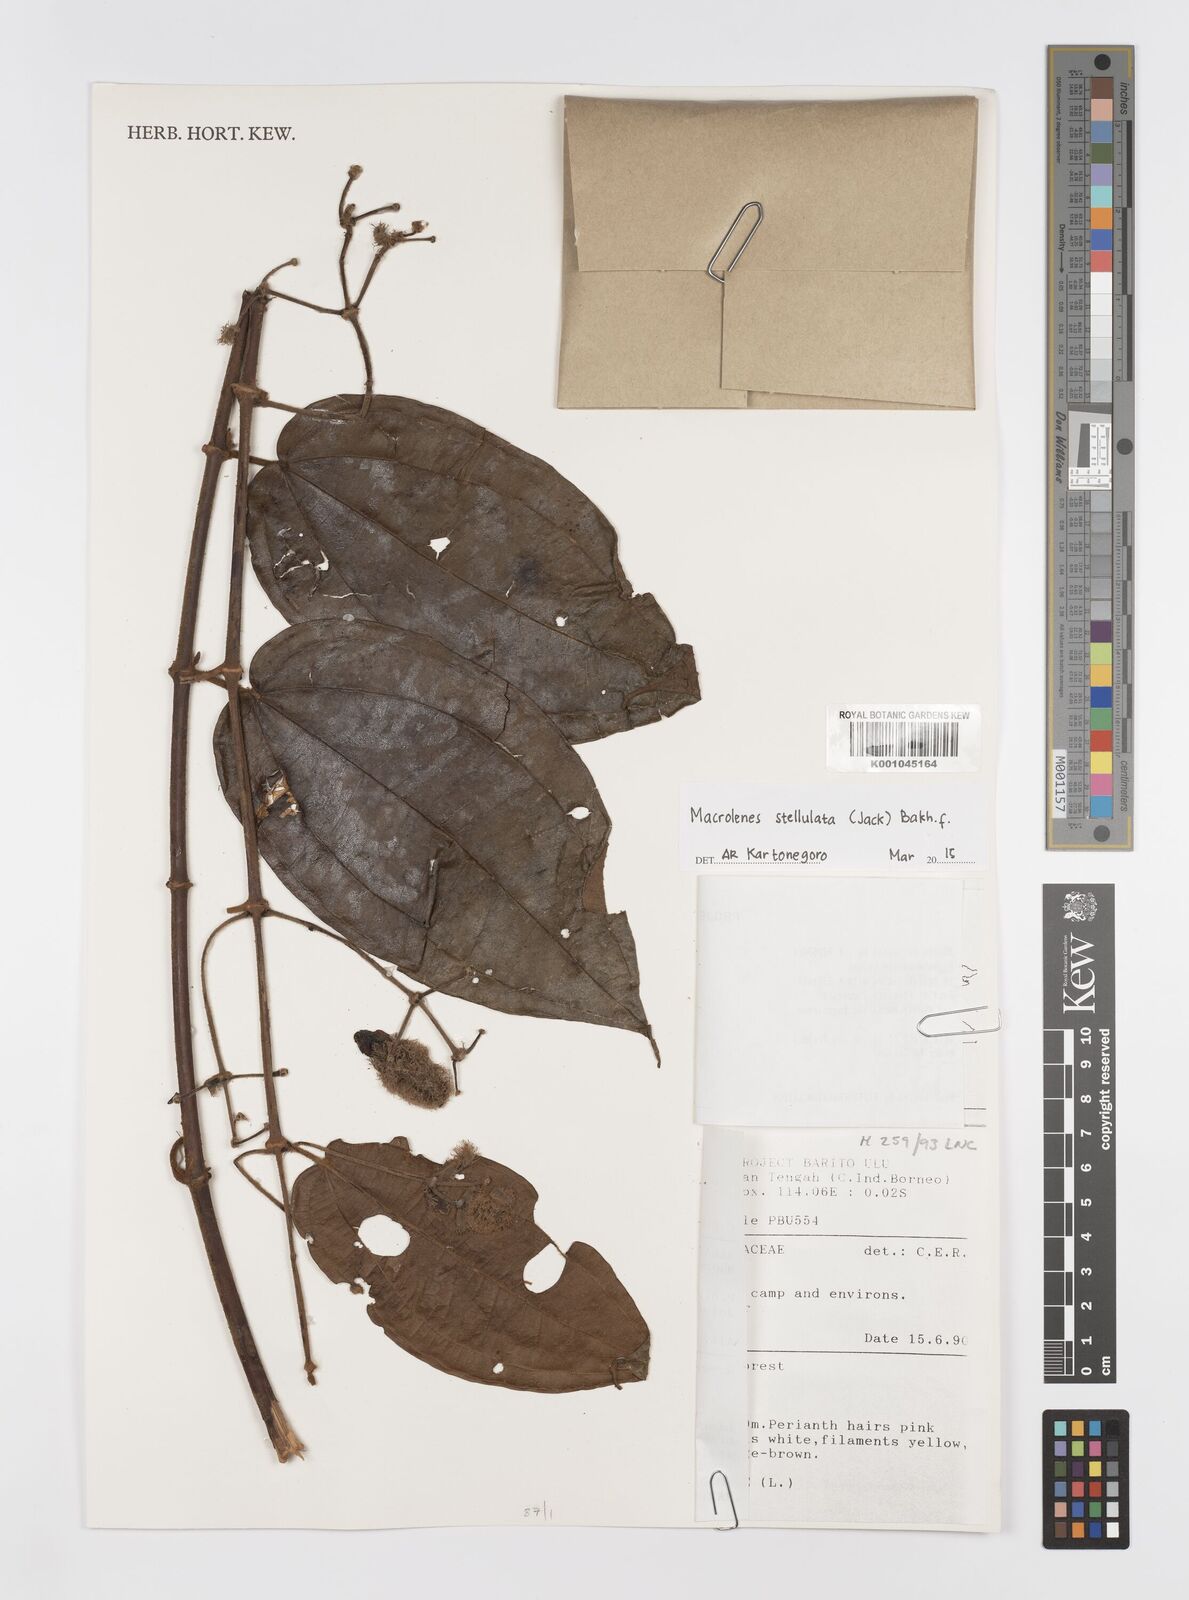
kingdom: Plantae
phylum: Tracheophyta
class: Magnoliopsida
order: Myrtales
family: Melastomataceae
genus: Macrolenes
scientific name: Macrolenes stellulata
